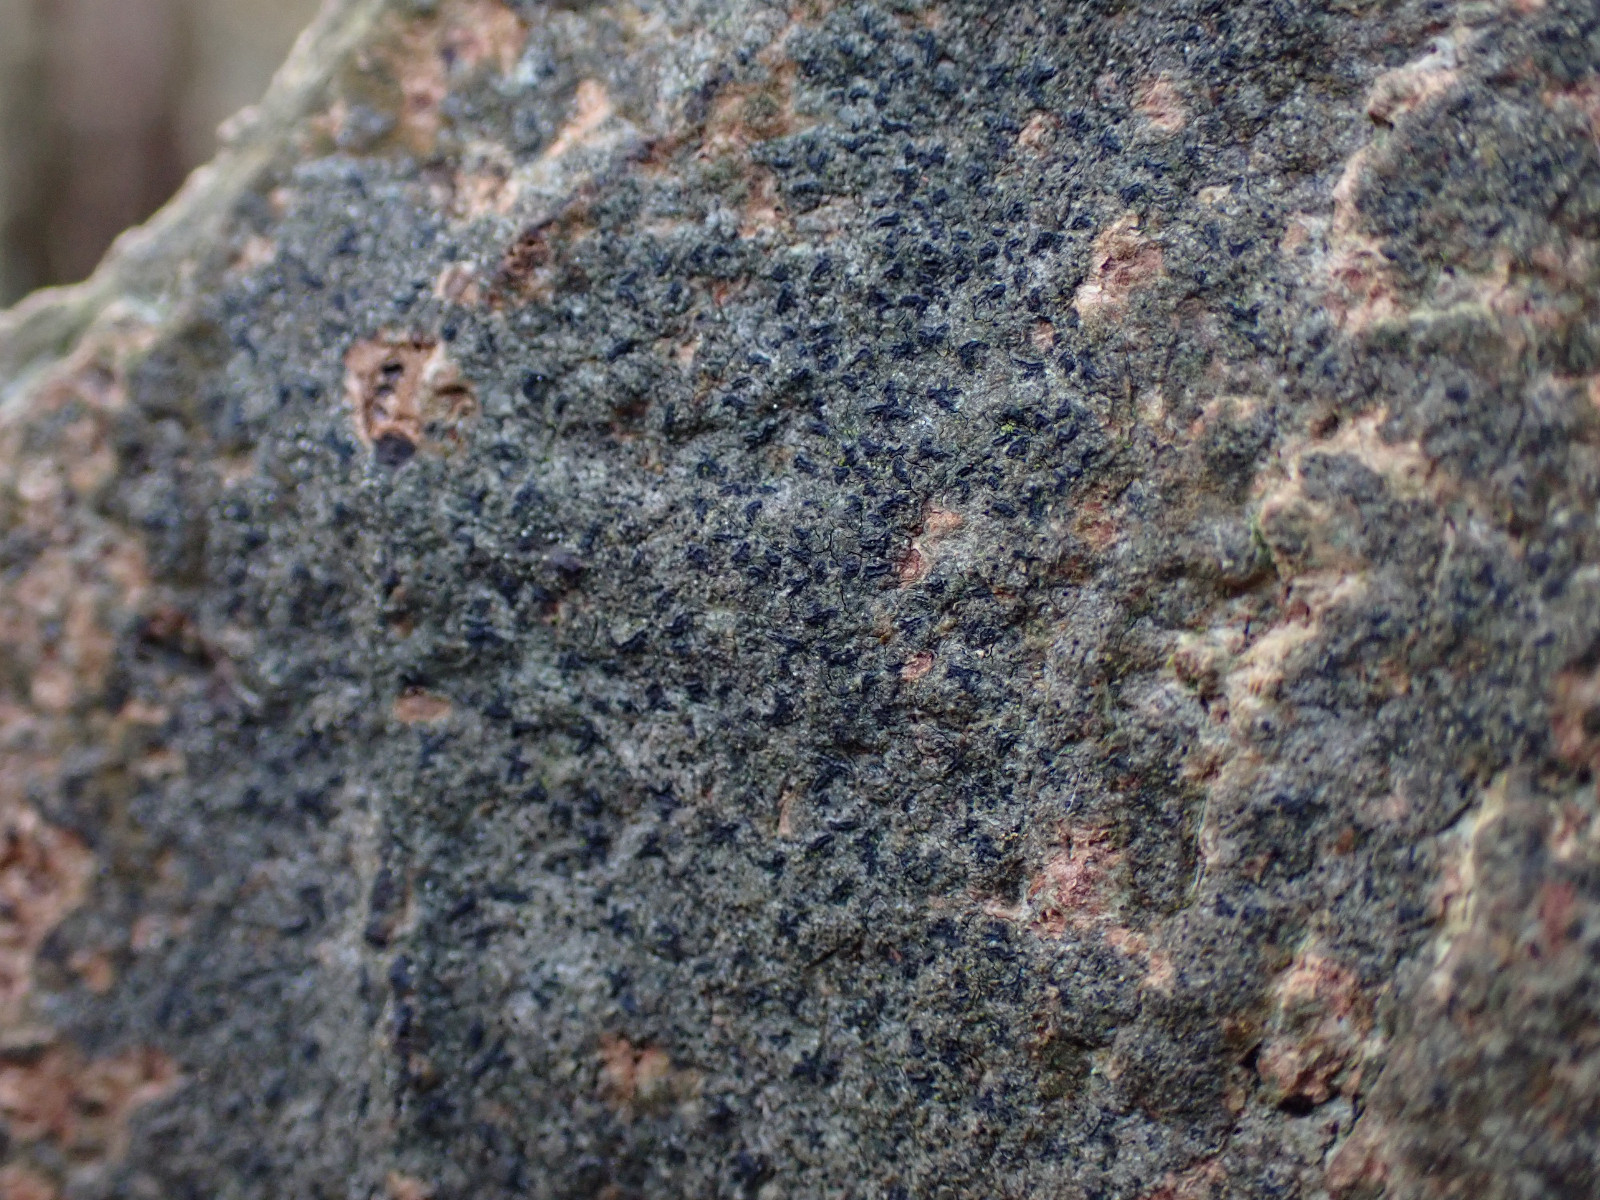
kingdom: Fungi
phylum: Ascomycota
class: Arthoniomycetes
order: Arthoniales
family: Roccellaceae
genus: Pseudoschismatomma
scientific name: Pseudoschismatomma rufescens
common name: brun bogstavlav
